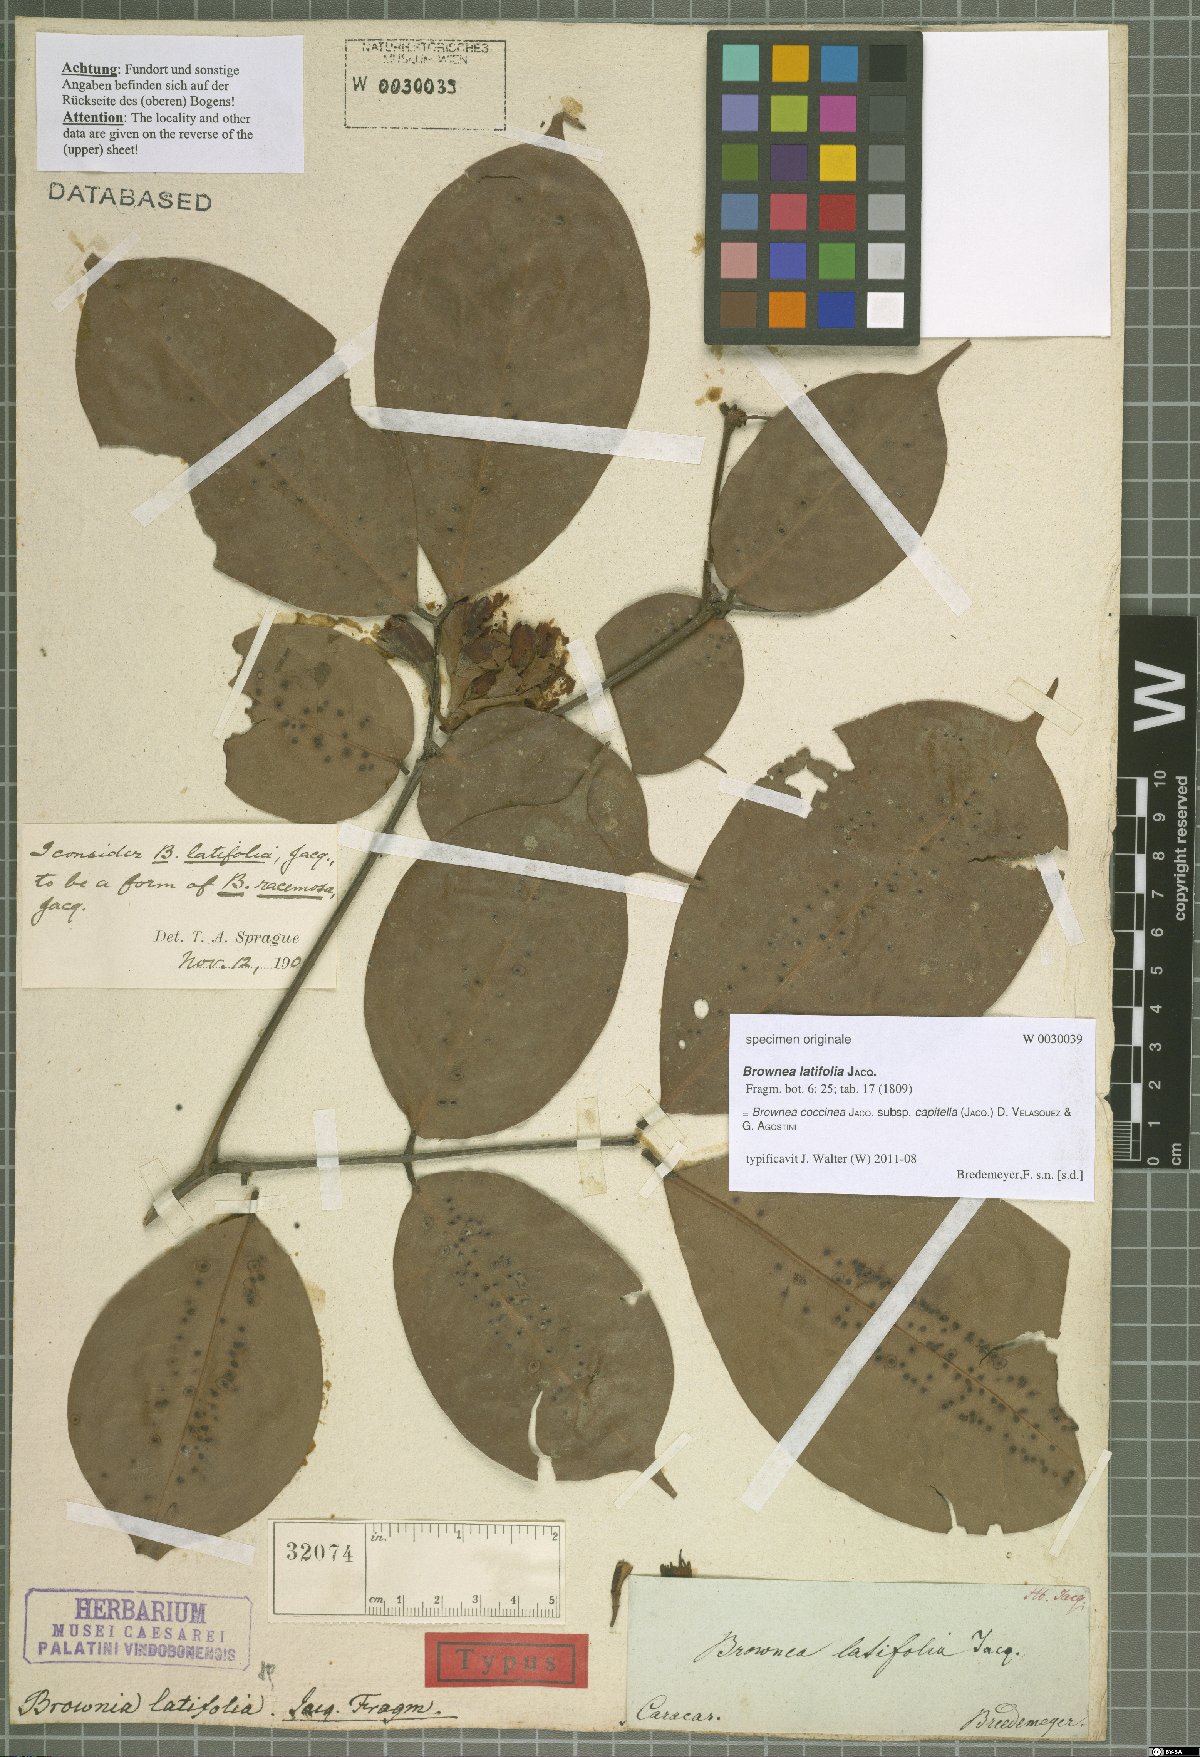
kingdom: Plantae
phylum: Tracheophyta
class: Magnoliopsida
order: Fabales
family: Fabaceae
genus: Brownea
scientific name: Brownea coccinea
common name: Scarlet flame-bean
